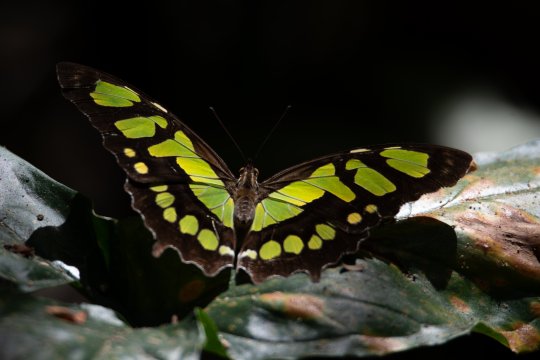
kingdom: Animalia
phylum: Arthropoda
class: Insecta
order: Lepidoptera
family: Nymphalidae
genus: Siproeta
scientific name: Siproeta stelenes
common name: Malachite
